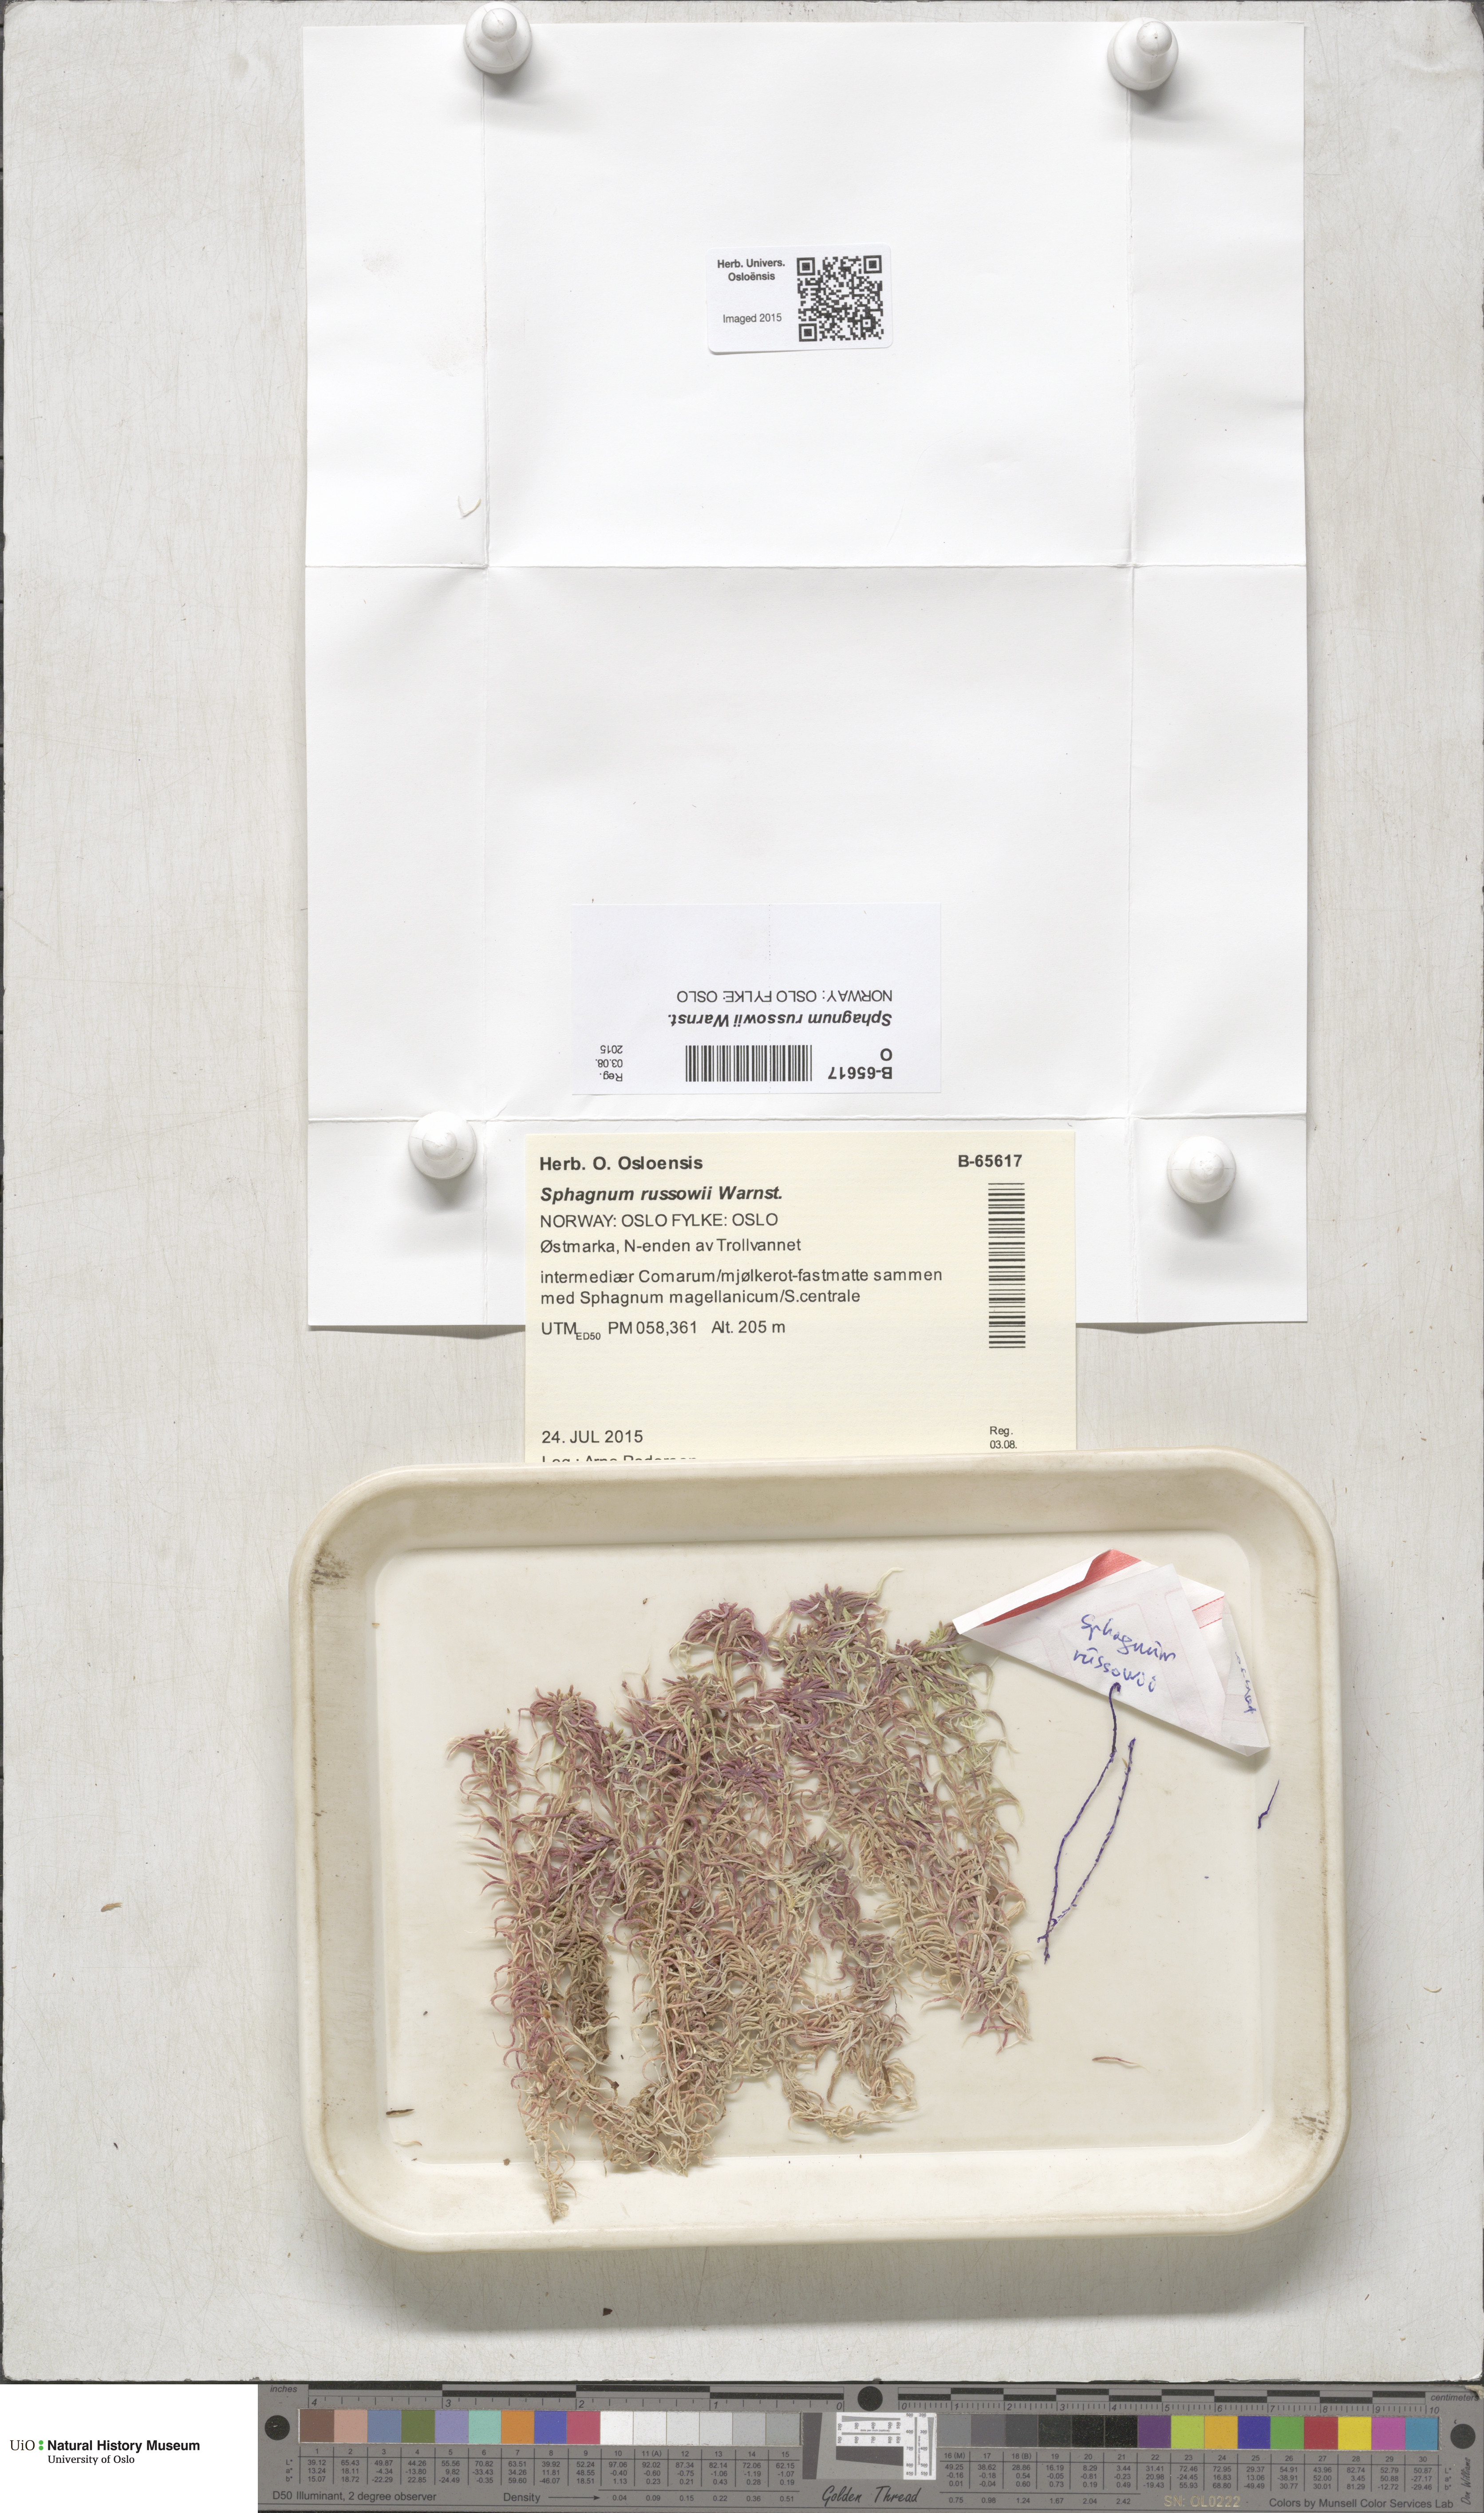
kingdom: Plantae
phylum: Bryophyta
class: Sphagnopsida
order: Sphagnales
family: Sphagnaceae
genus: Sphagnum
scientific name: Sphagnum russowii
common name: Russow's peat moss
